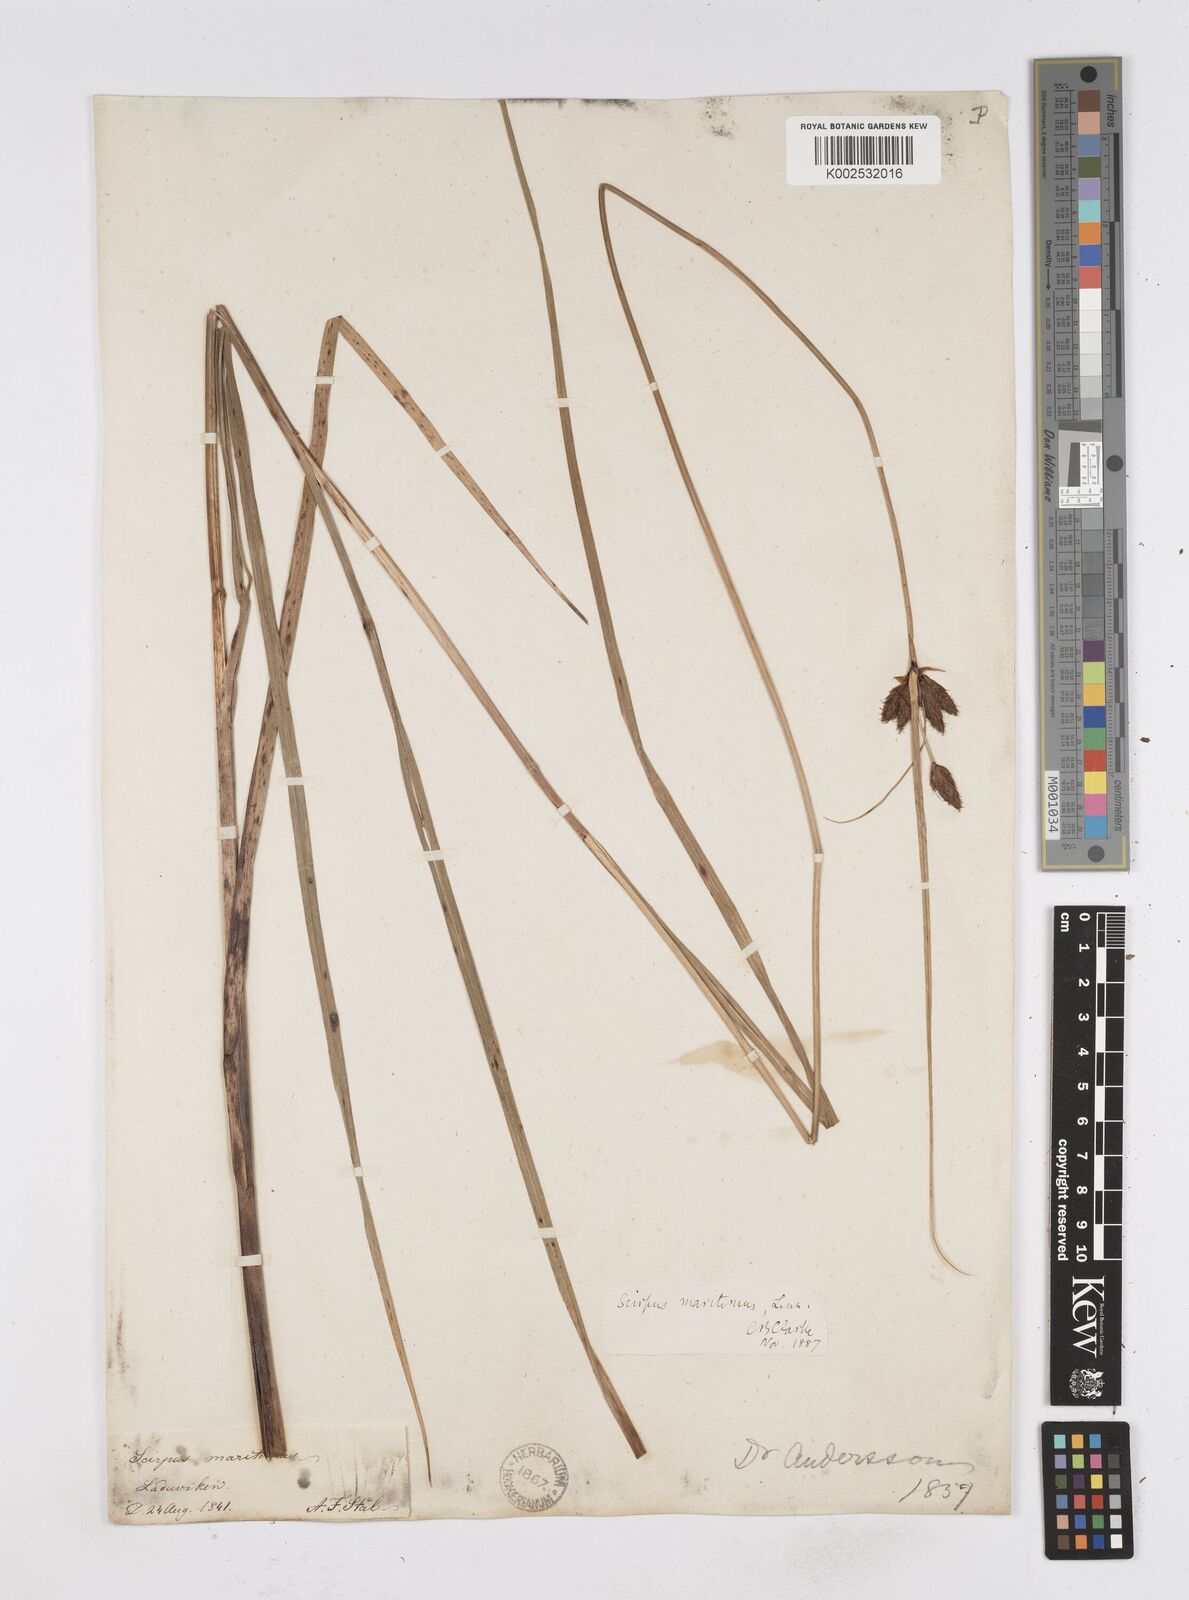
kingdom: Plantae
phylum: Tracheophyta
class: Liliopsida
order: Poales
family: Cyperaceae
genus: Bolboschoenus
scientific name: Bolboschoenus maritimus
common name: Sea club-rush
